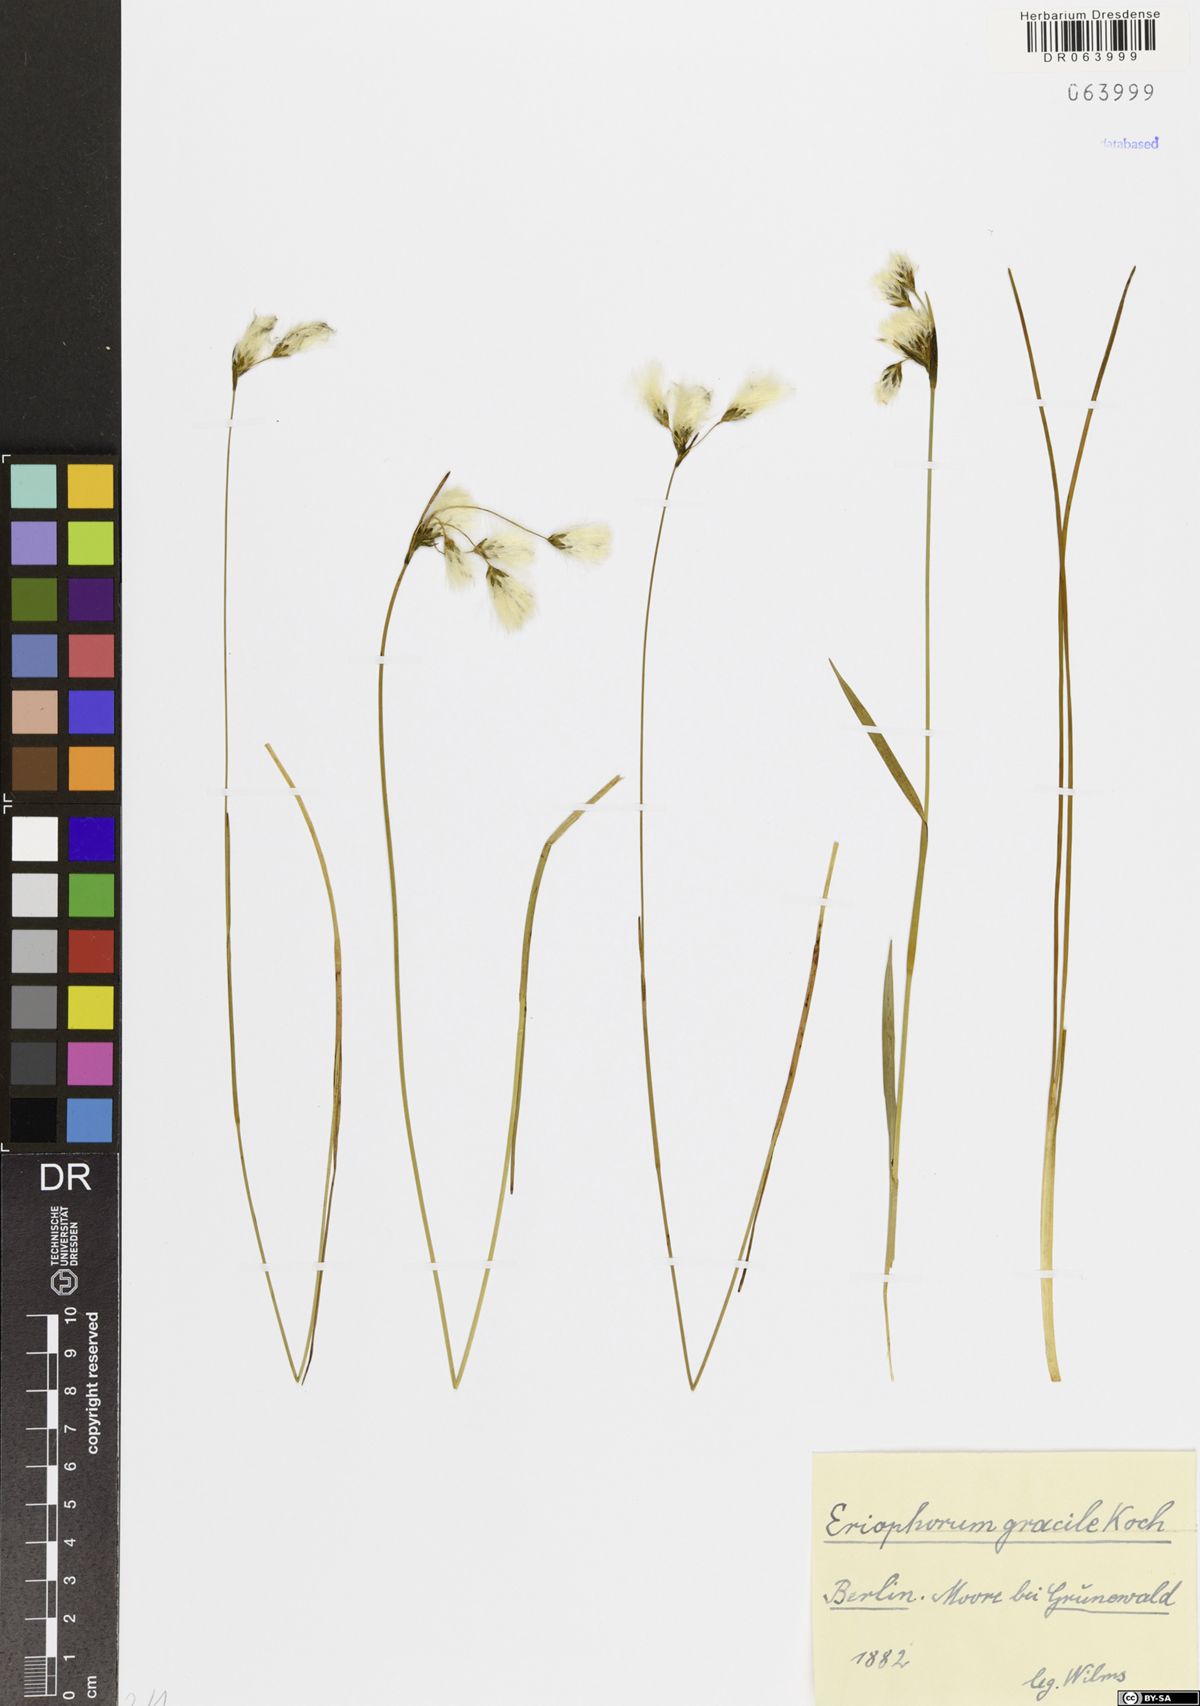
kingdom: Plantae
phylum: Tracheophyta
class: Liliopsida
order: Poales
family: Cyperaceae
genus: Eriophorum
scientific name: Eriophorum gracile
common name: Slender cottongrass
